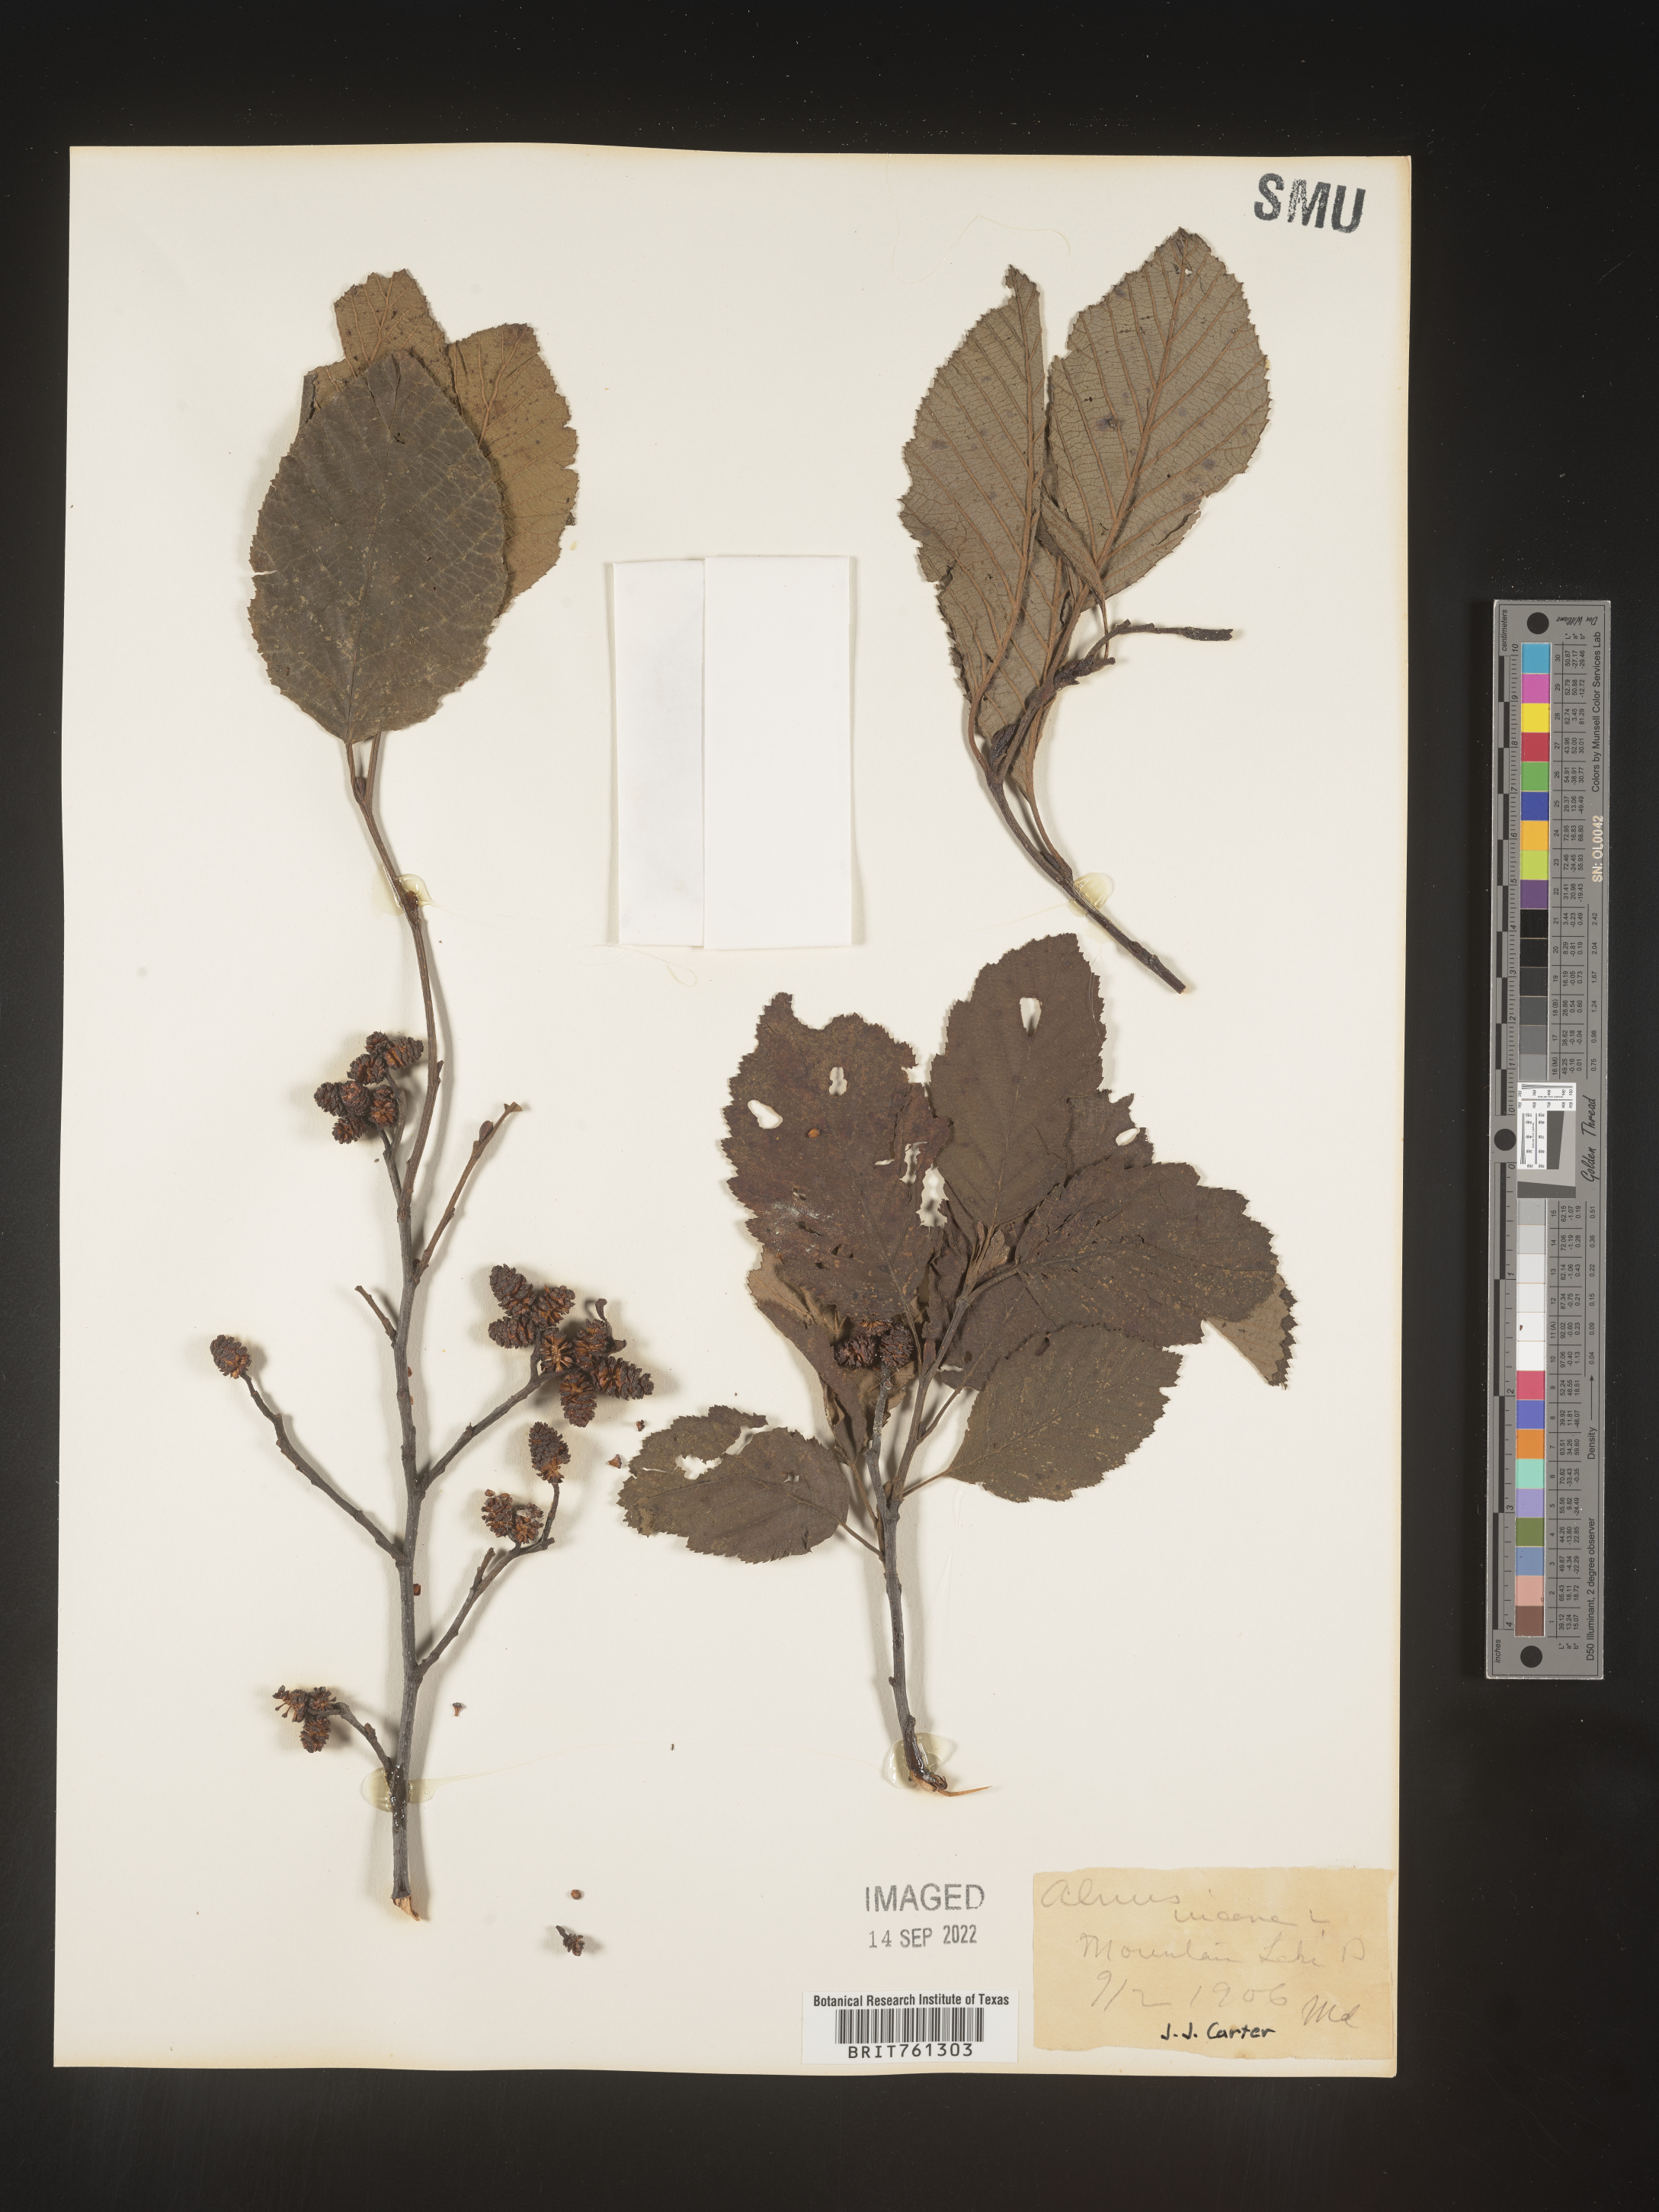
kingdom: Plantae
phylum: Tracheophyta
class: Magnoliopsida
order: Fagales
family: Betulaceae
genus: Alnus
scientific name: Alnus incana
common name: Grey alder
